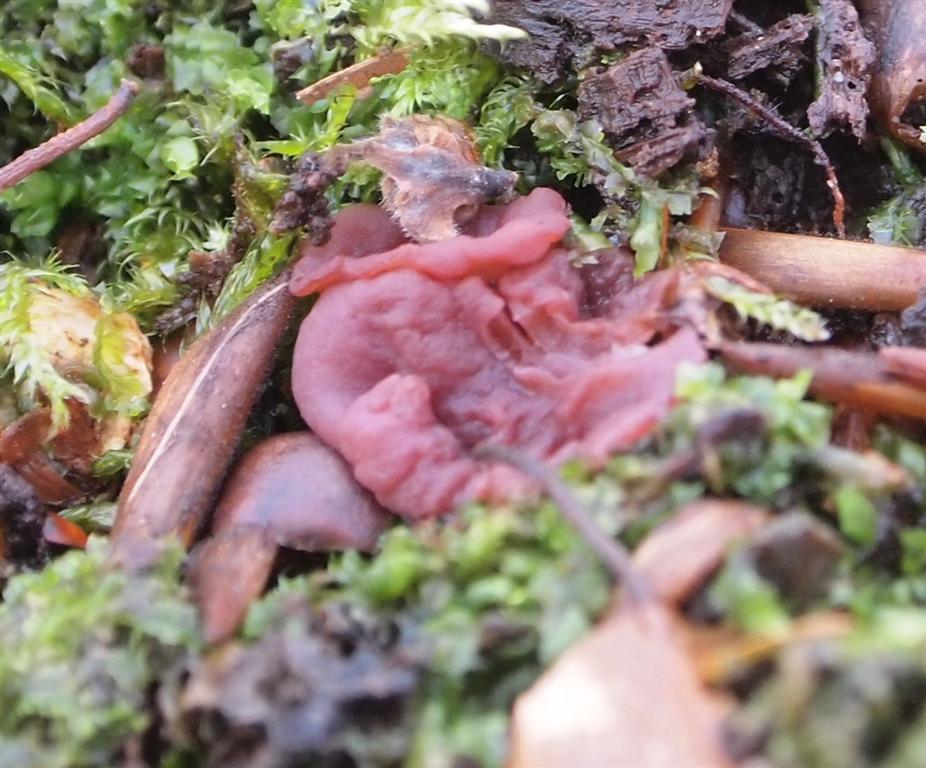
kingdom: Fungi
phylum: Ascomycota
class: Leotiomycetes
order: Helotiales
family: Gelatinodiscaceae
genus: Ascocoryne
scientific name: Ascocoryne cylichnium
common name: stor sejskive
